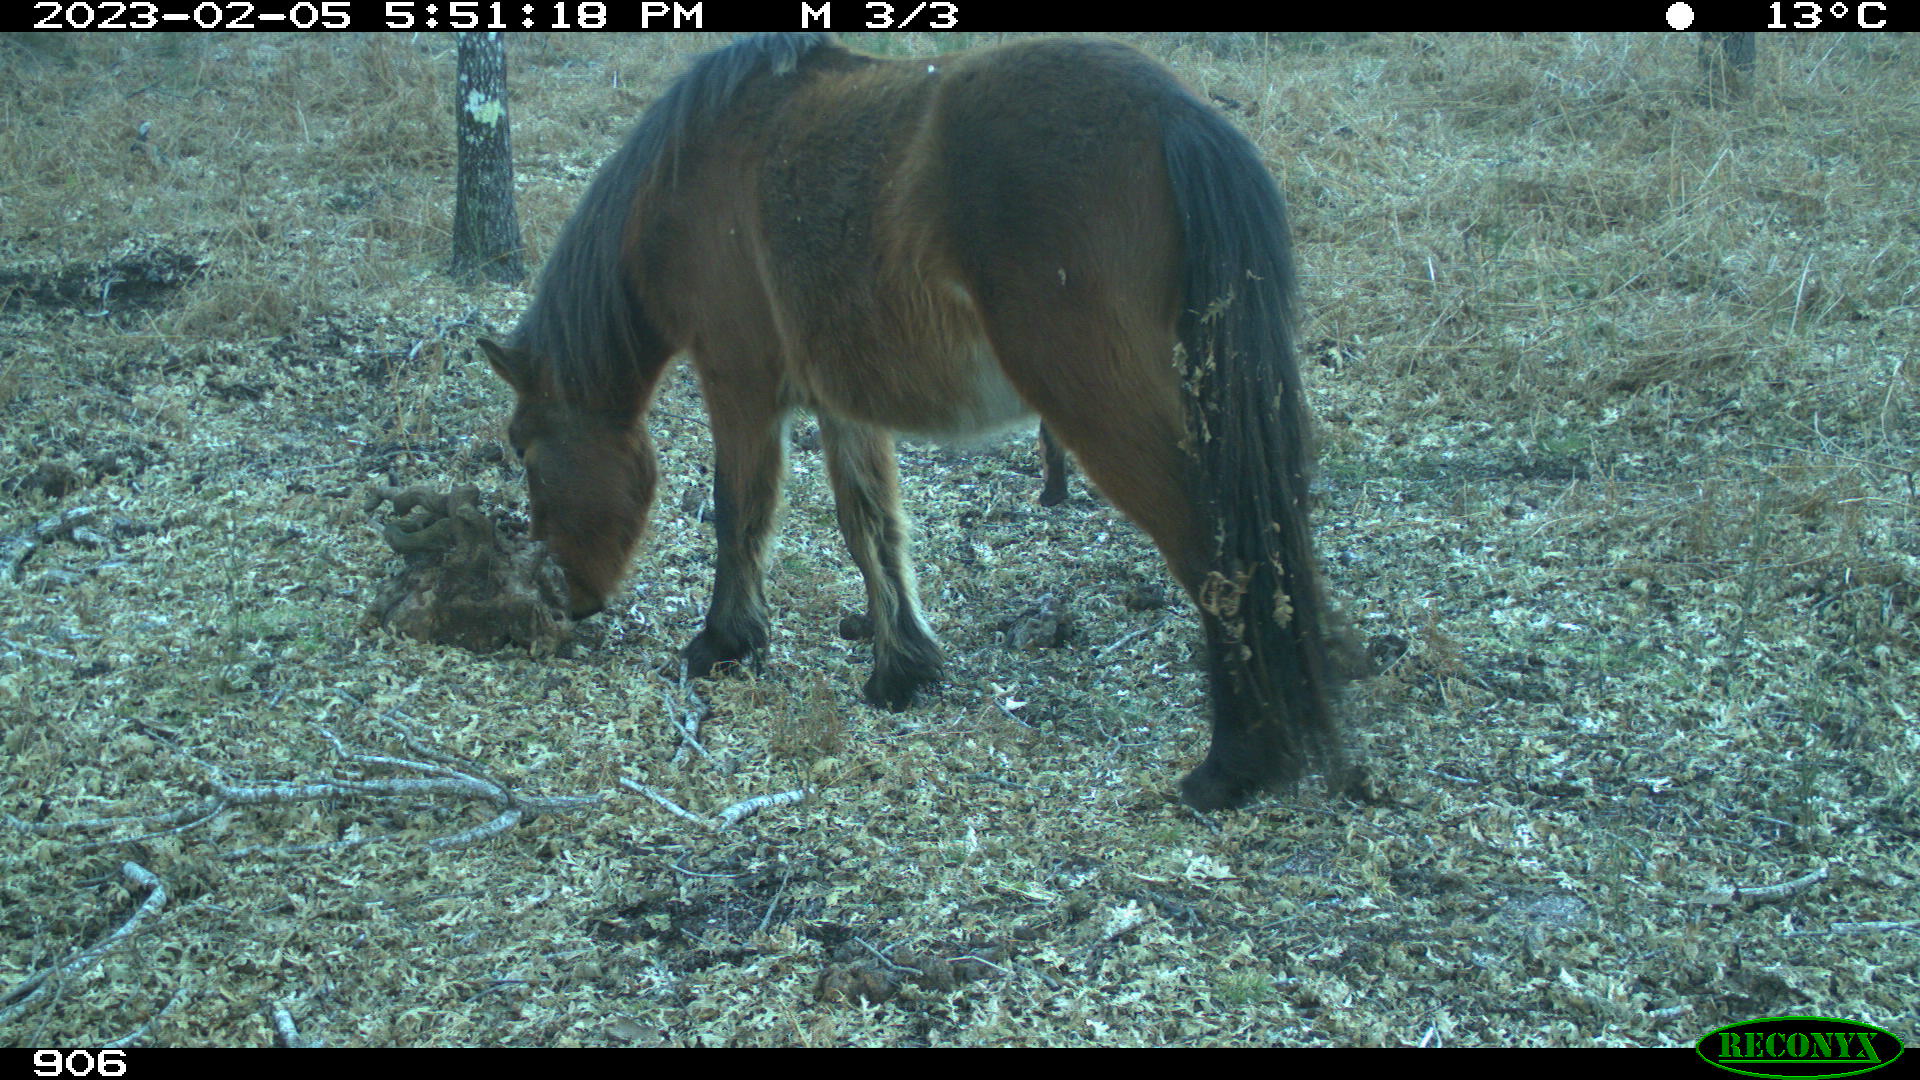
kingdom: Animalia
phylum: Chordata
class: Mammalia
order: Perissodactyla
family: Equidae
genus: Equus
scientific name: Equus caballus
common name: Horse
